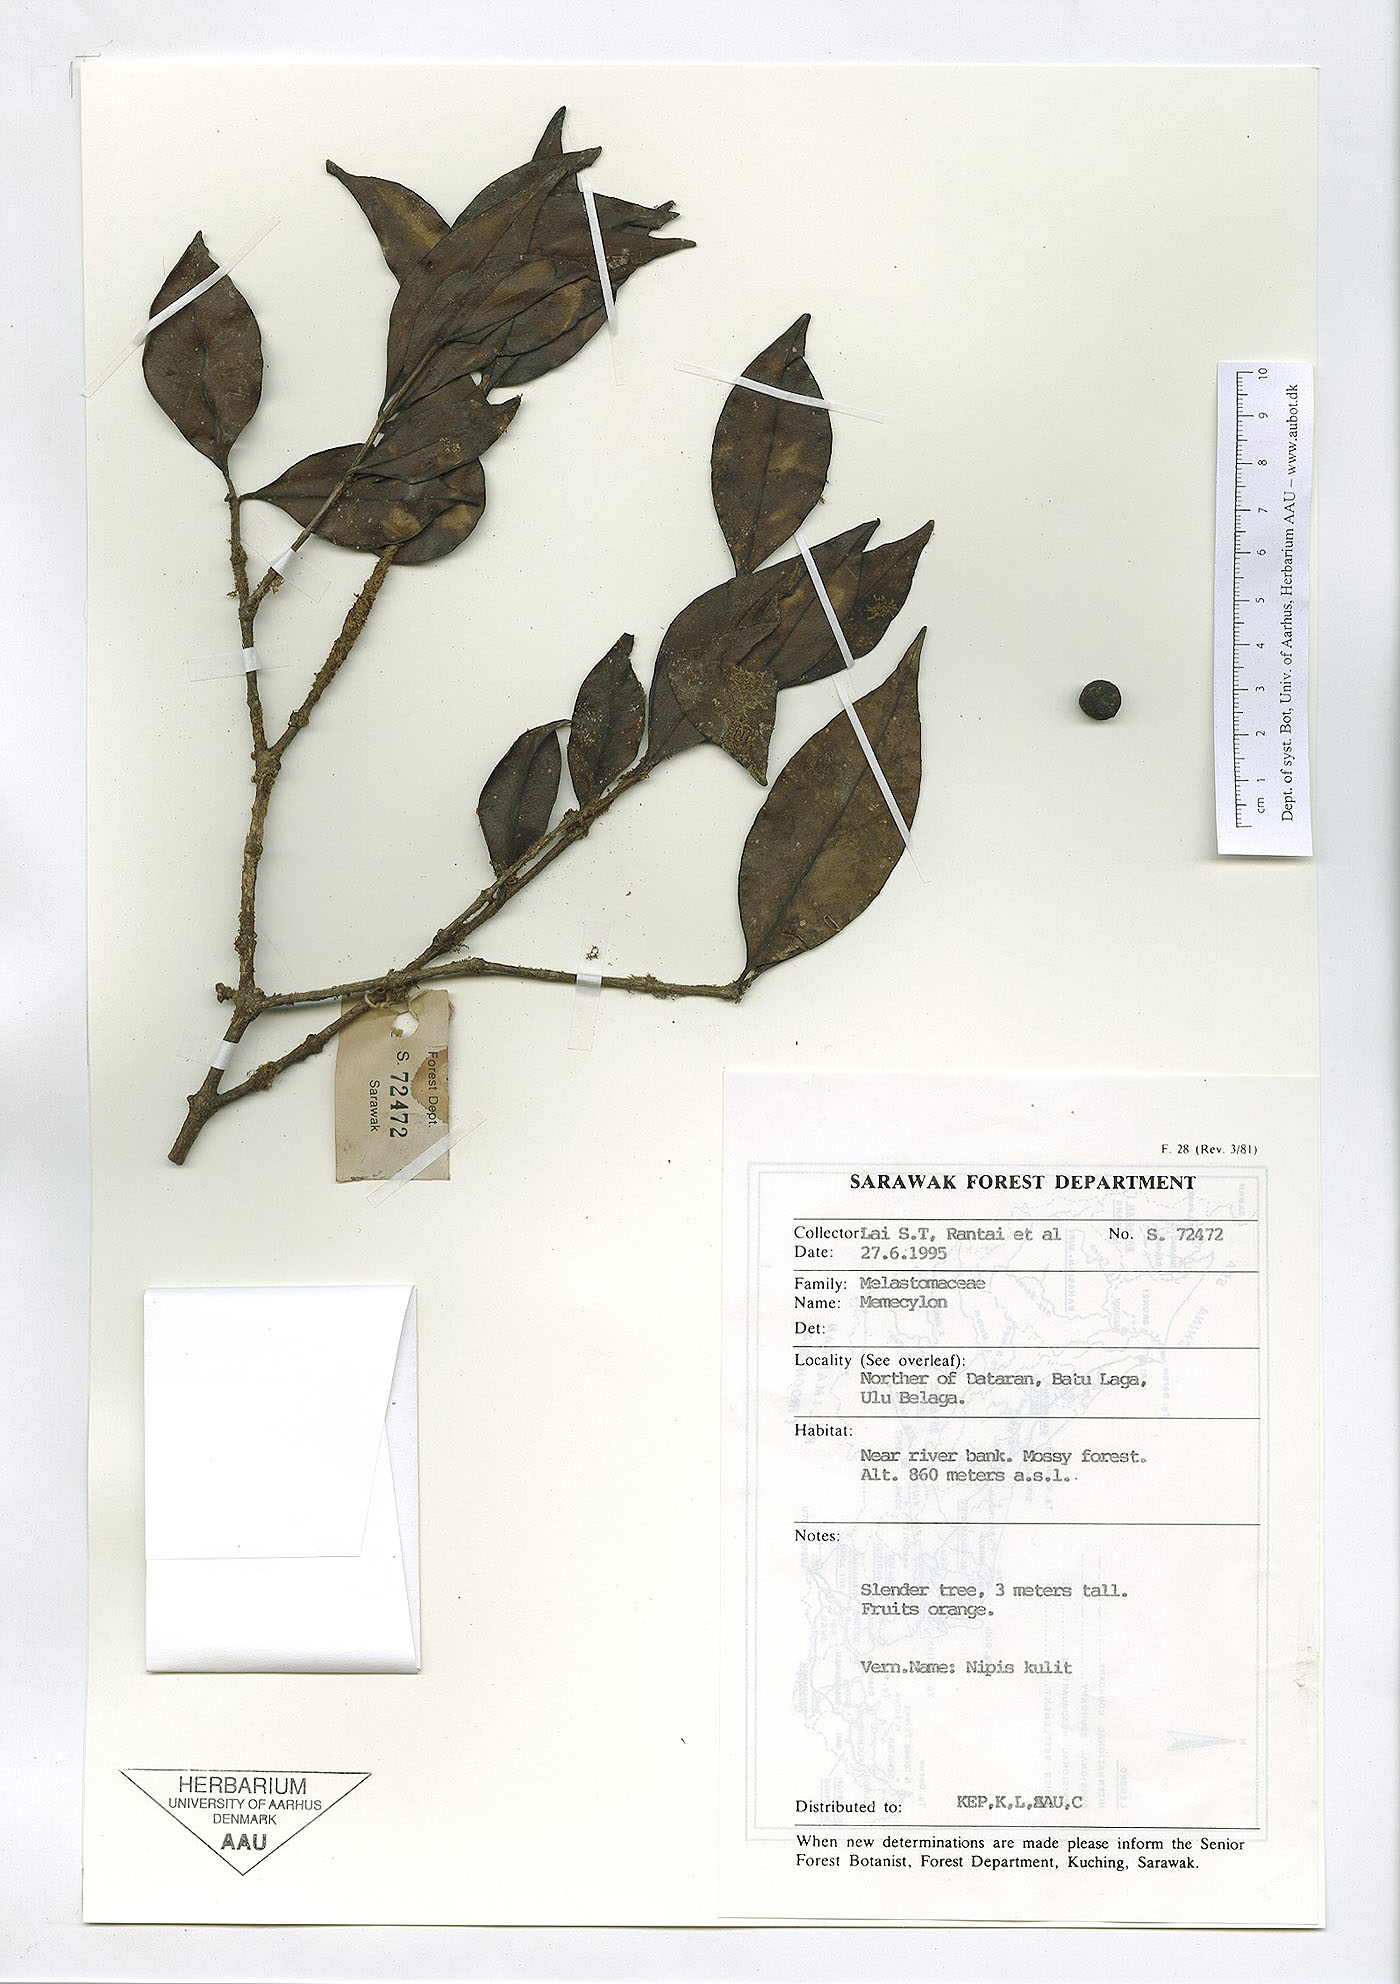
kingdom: Plantae
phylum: Tracheophyta
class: Magnoliopsida
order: Myrtales
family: Melastomataceae
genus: Memecylon
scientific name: Memecylon
